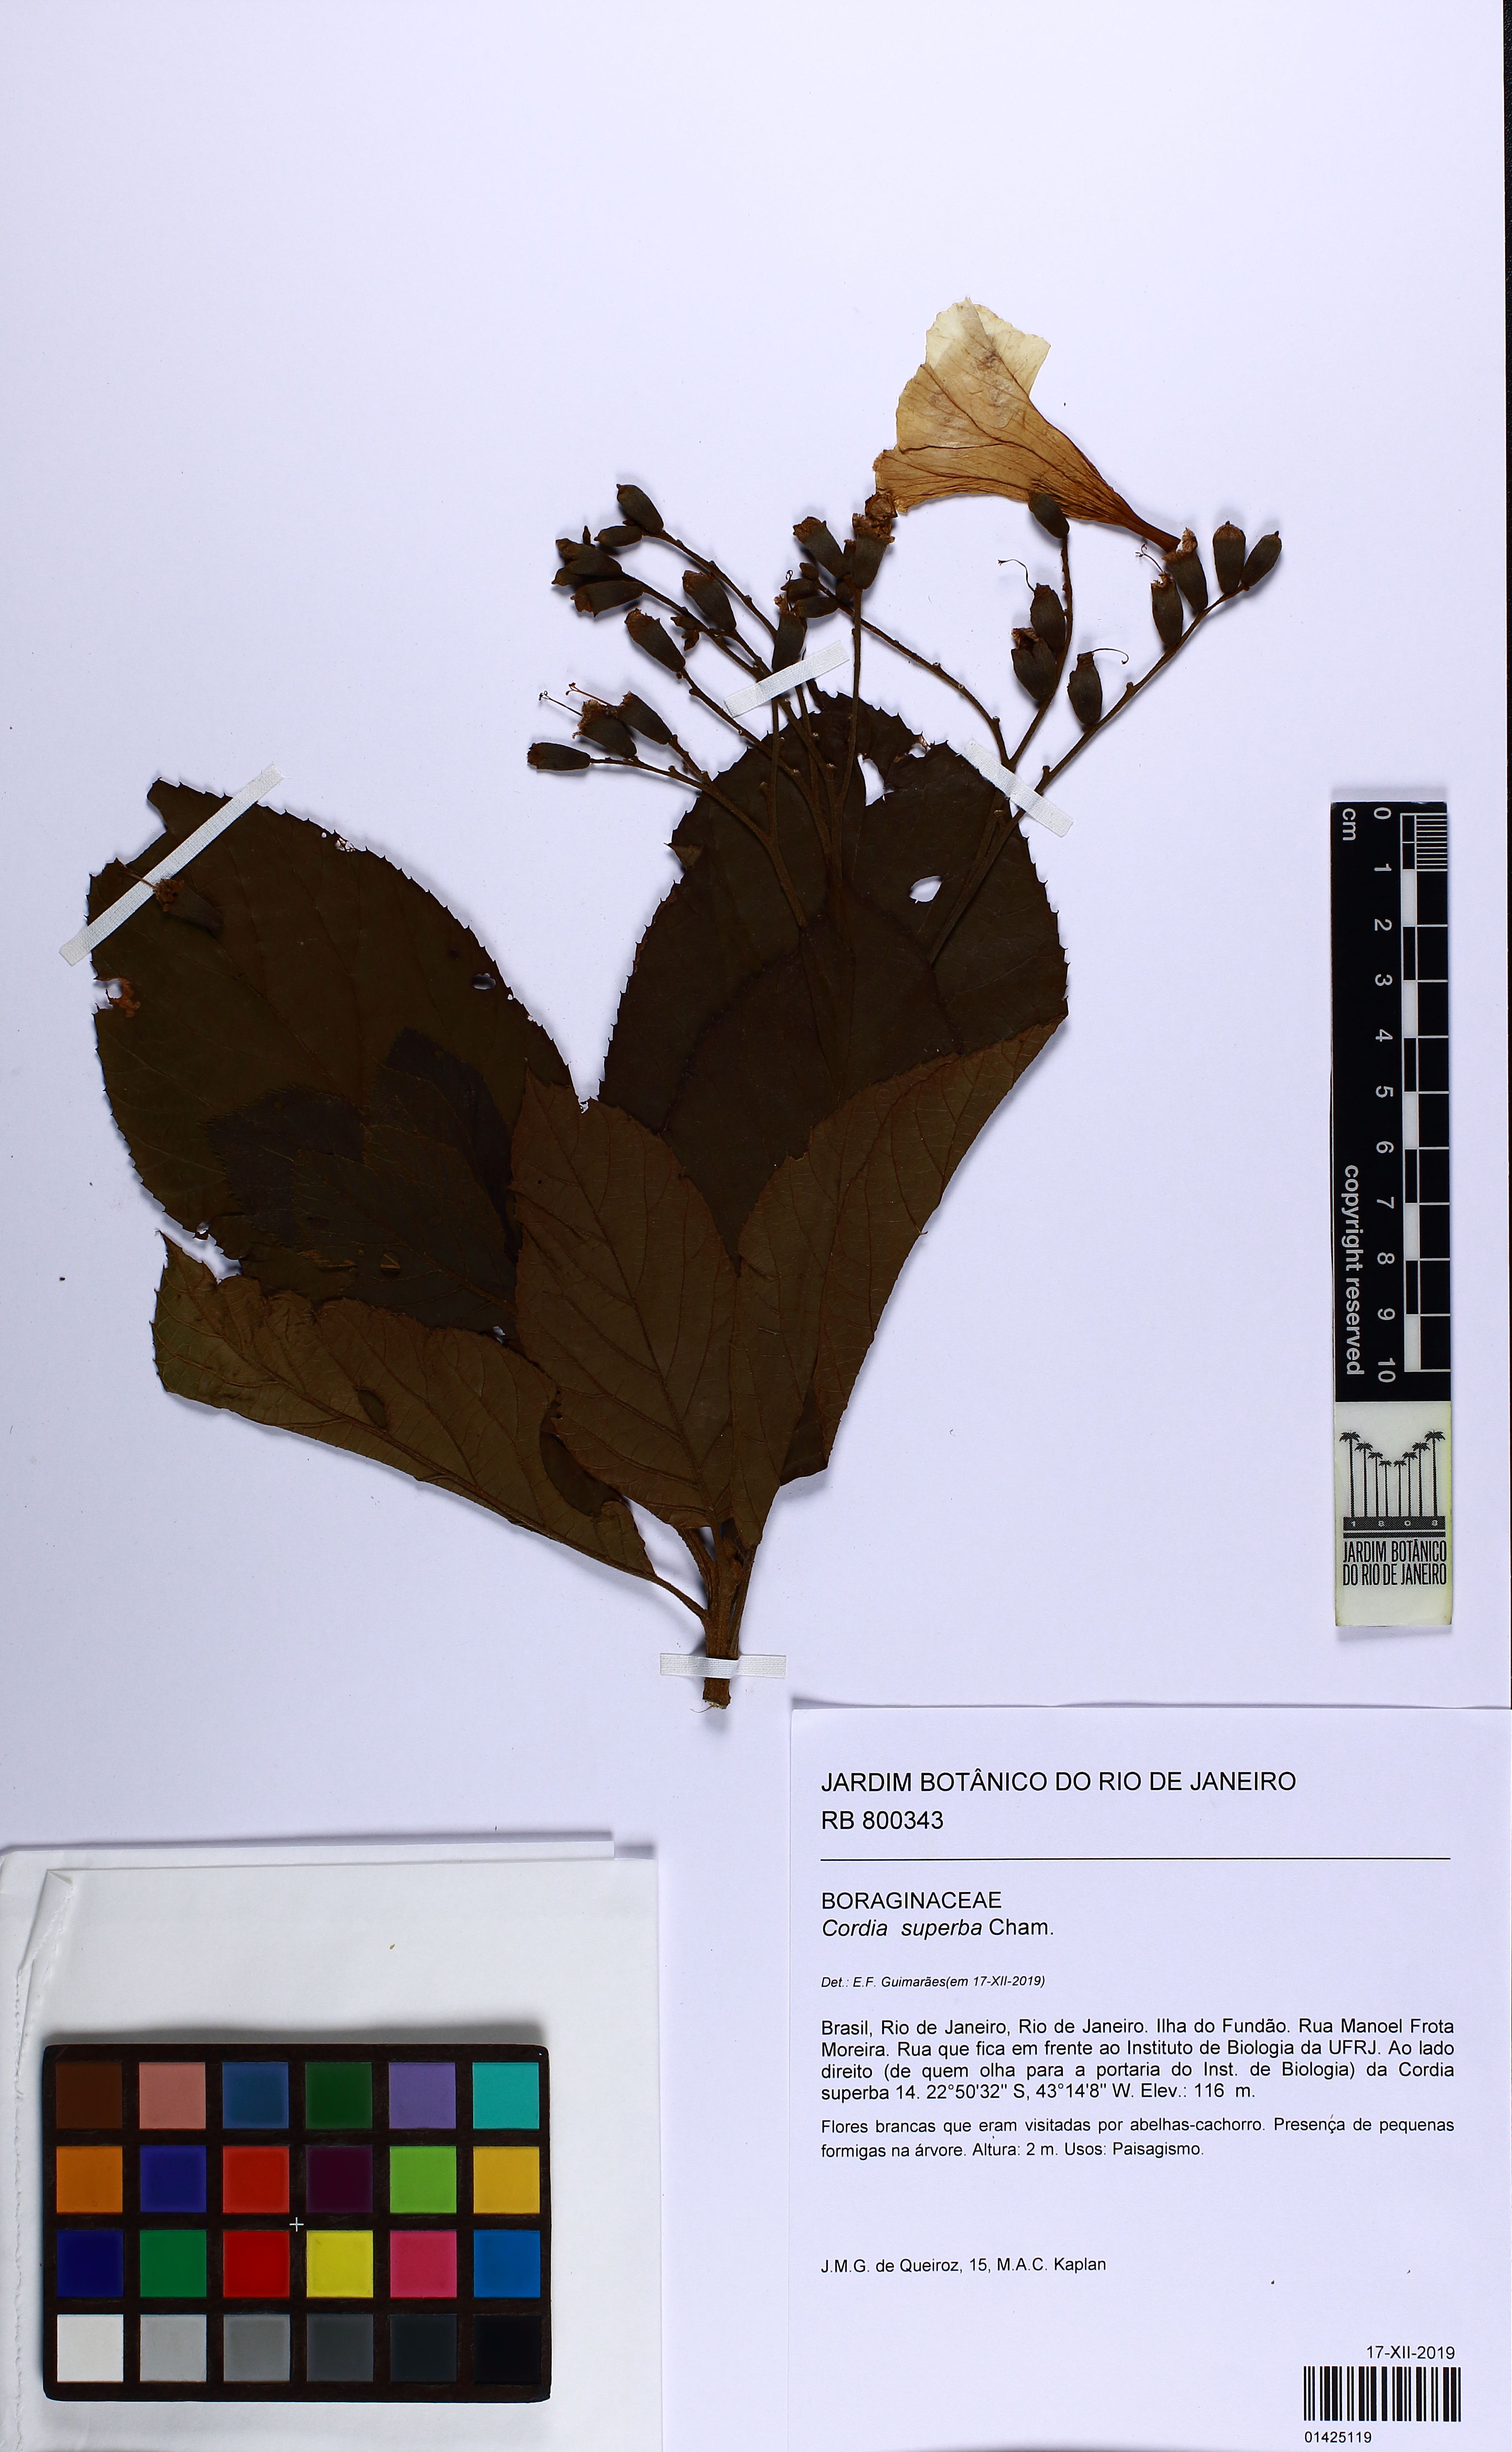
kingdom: Plantae
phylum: Tracheophyta
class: Magnoliopsida
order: Boraginales
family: Cordiaceae
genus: Cordia
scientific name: Cordia superba
